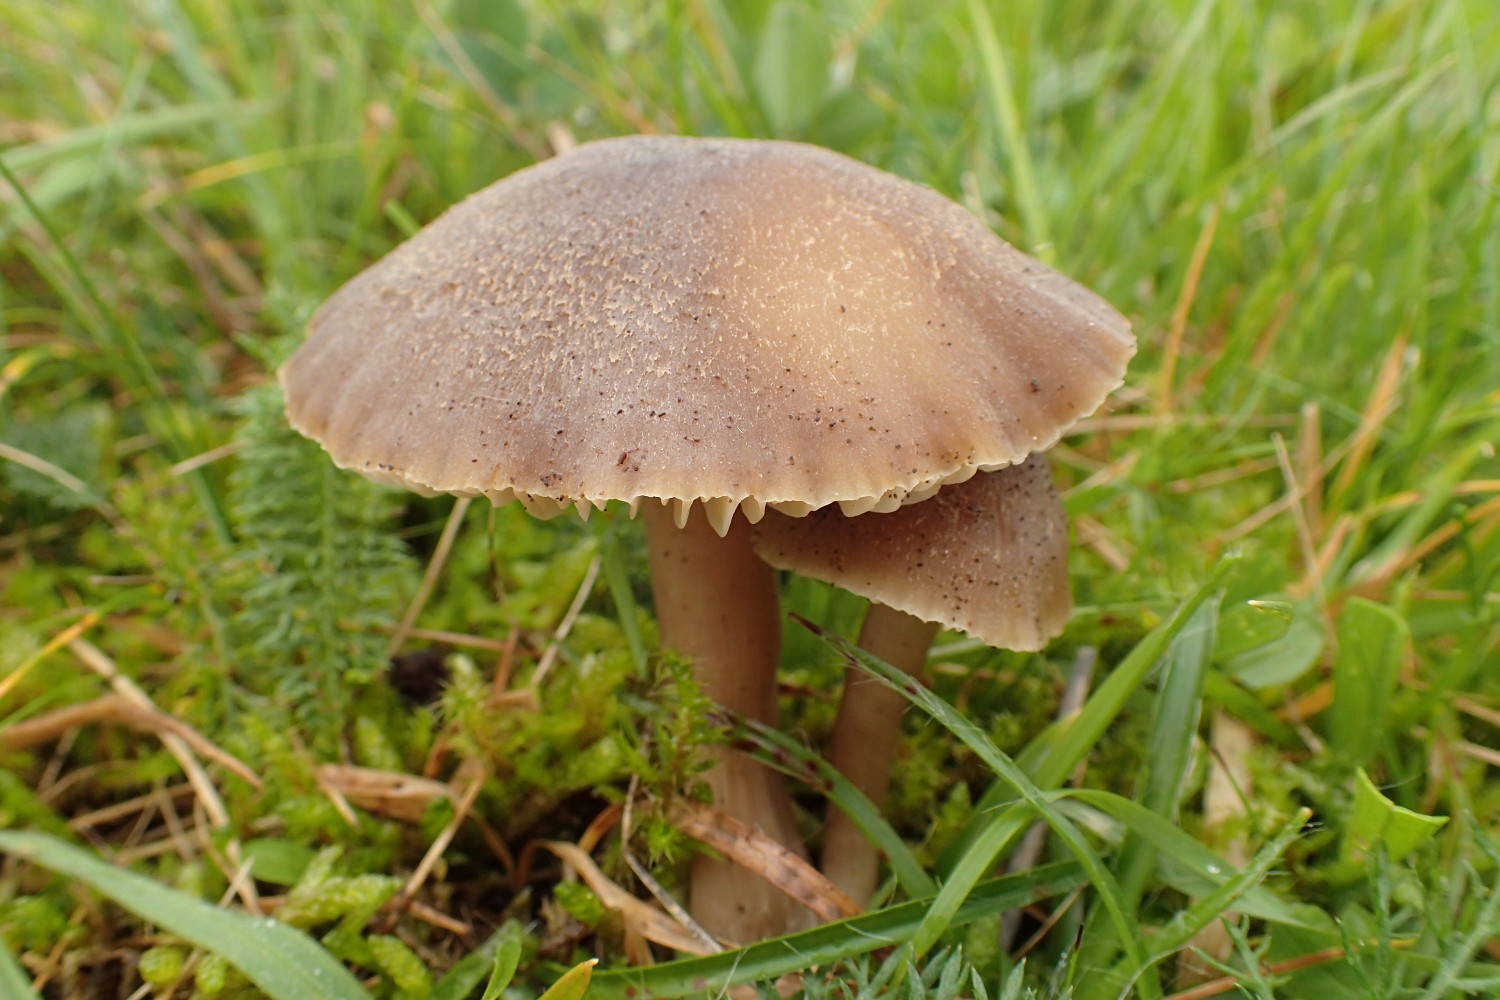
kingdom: Fungi
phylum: Basidiomycota
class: Agaricomycetes
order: Agaricales
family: Hygrophoraceae
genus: Neohygrocybe
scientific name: Neohygrocybe nitrata
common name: stinkende vokshat
